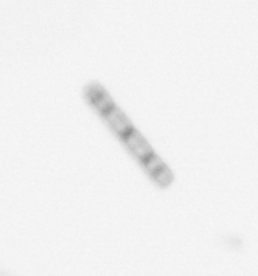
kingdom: Chromista
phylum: Ochrophyta
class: Bacillariophyceae
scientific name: Bacillariophyceae
